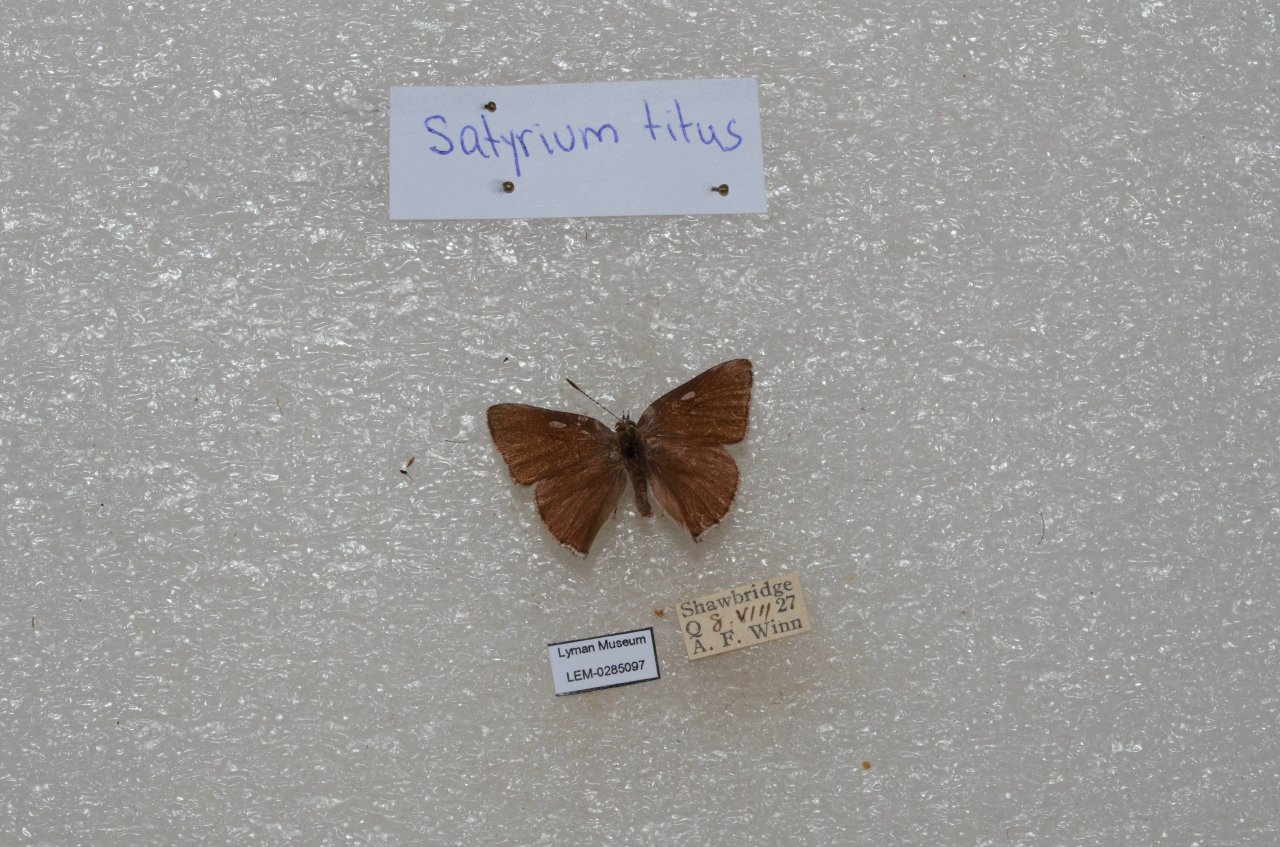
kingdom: Animalia
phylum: Arthropoda
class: Insecta
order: Lepidoptera
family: Lycaenidae
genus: Harkenclenus
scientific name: Harkenclenus titus
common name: Coral Hairstreak
